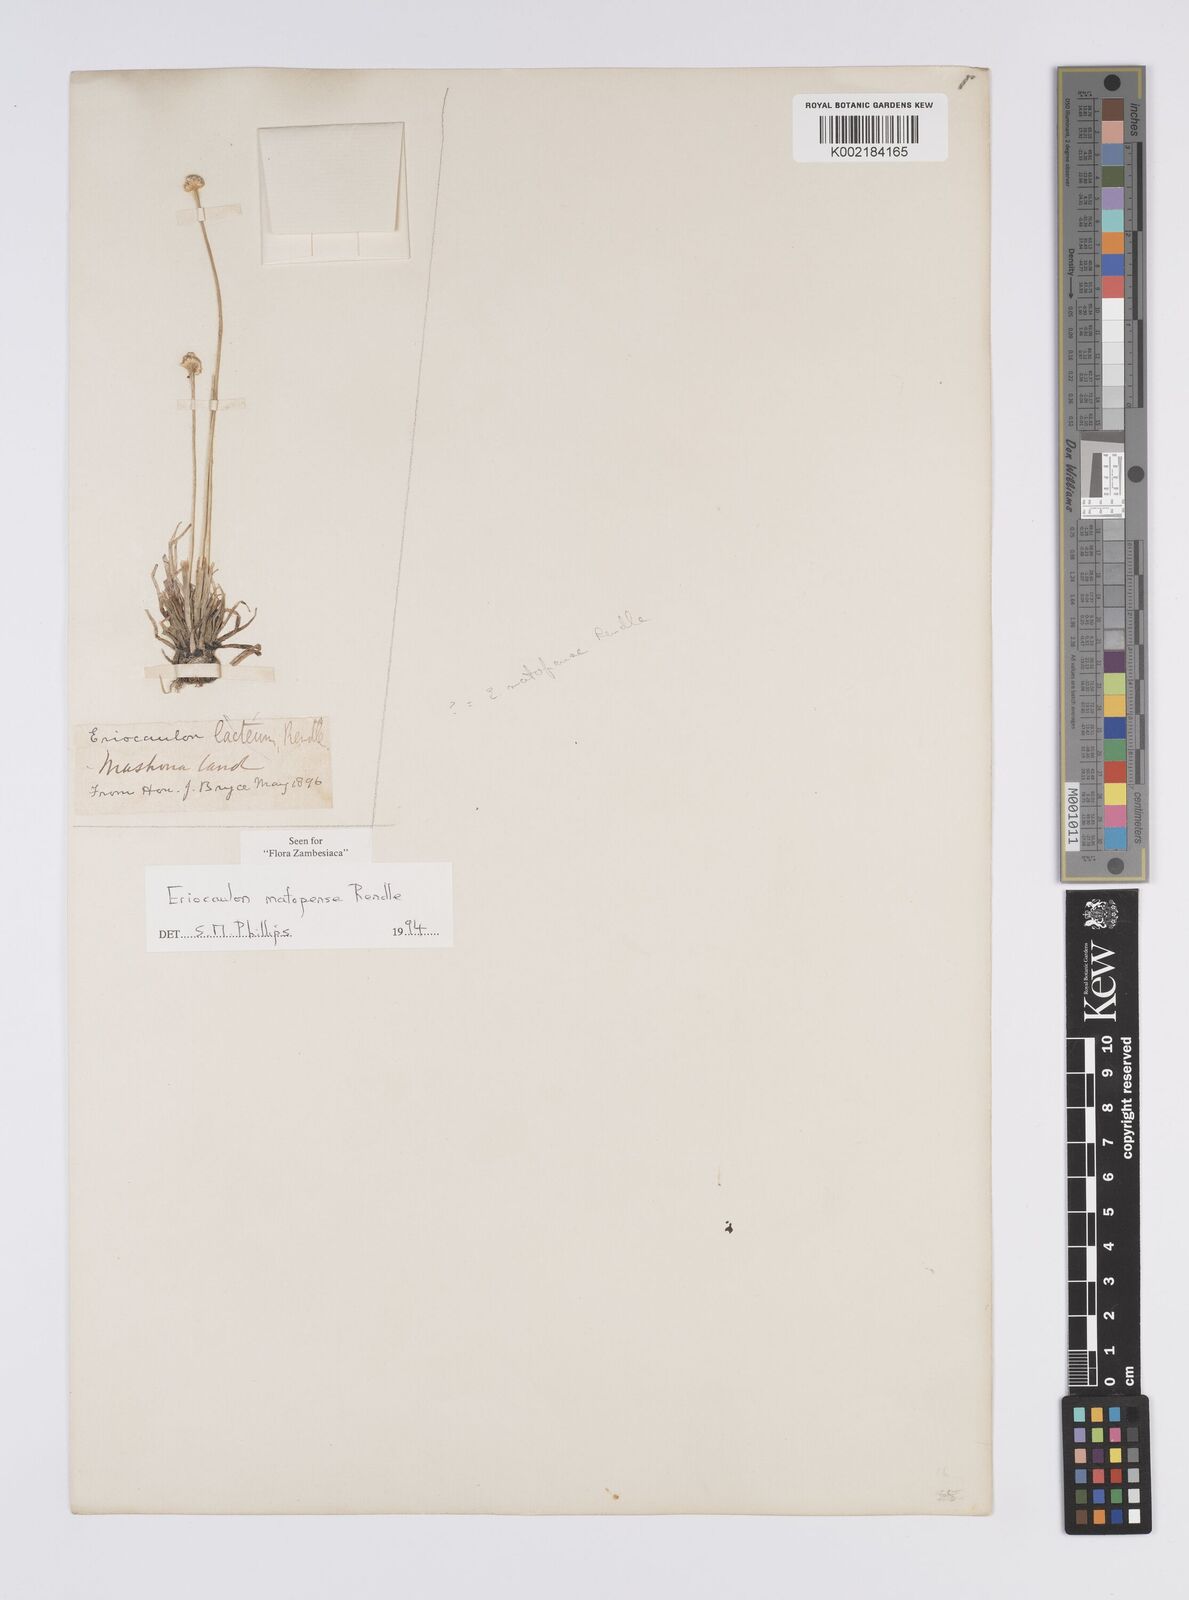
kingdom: Plantae
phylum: Tracheophyta
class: Liliopsida
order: Poales
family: Eriocaulaceae
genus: Eriocaulon
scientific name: Eriocaulon matopense
